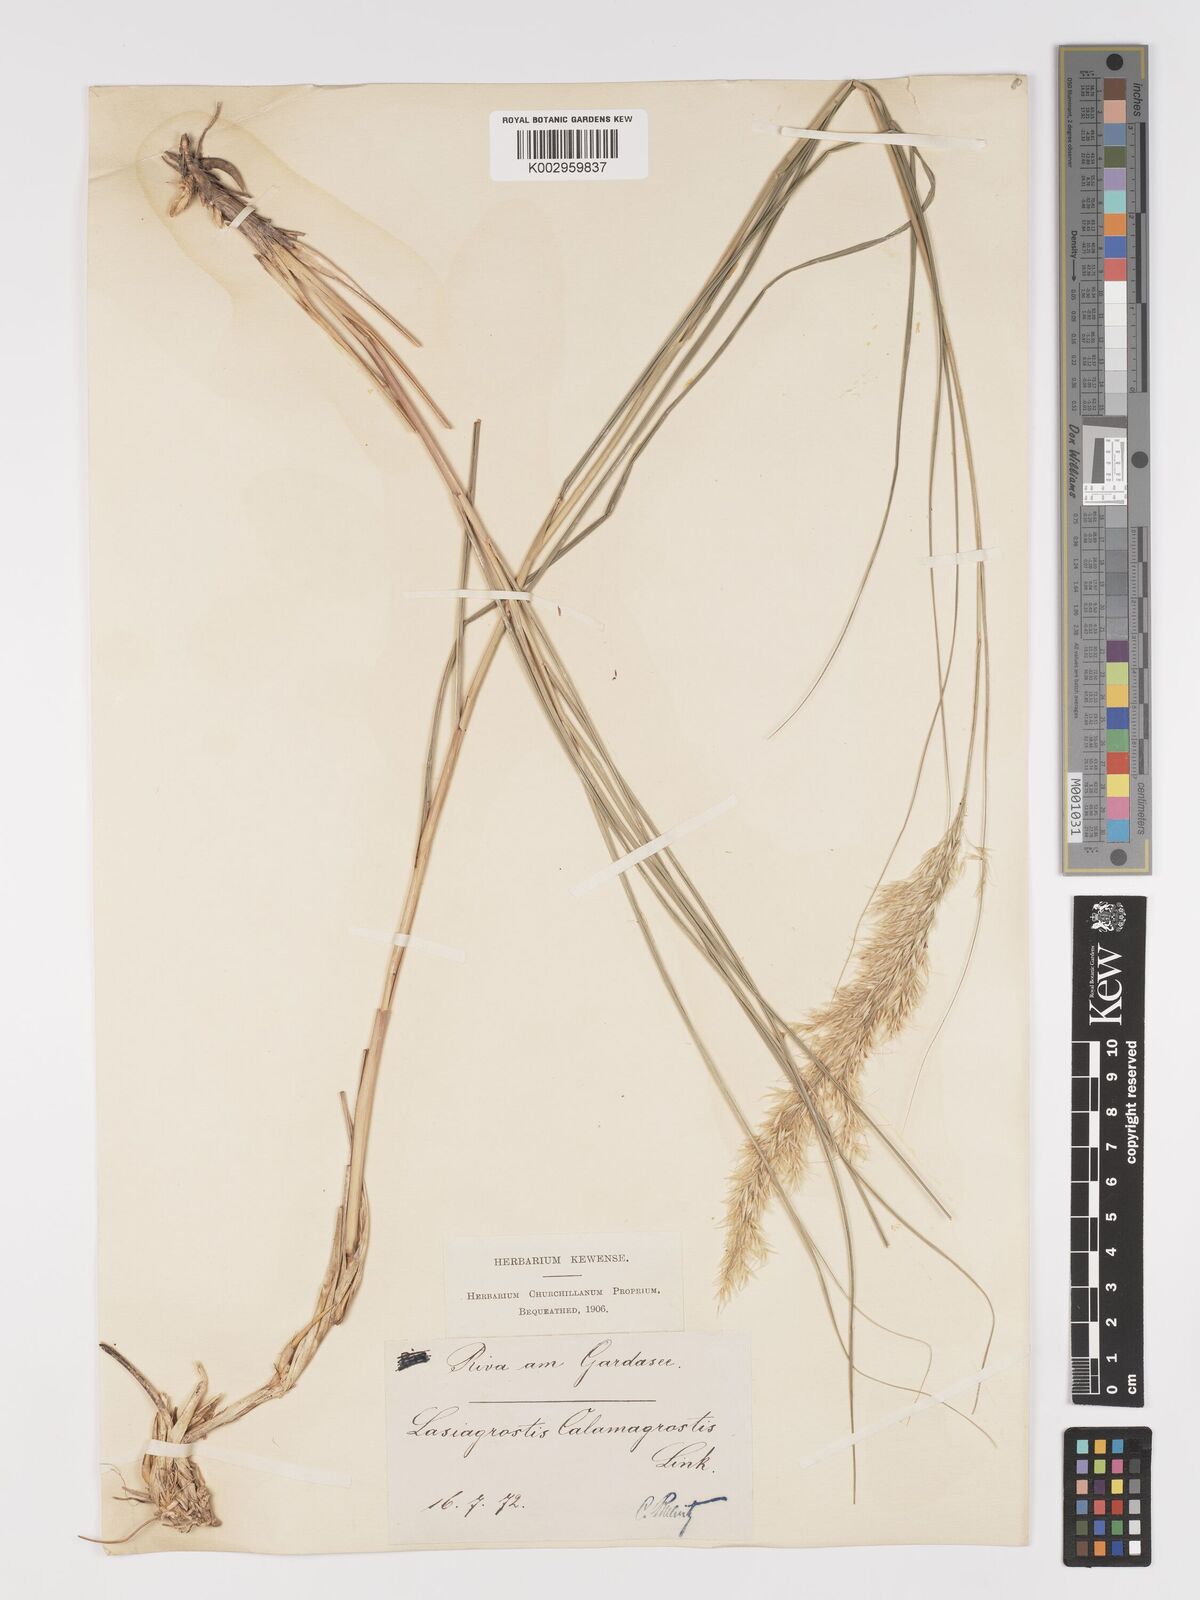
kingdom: Plantae
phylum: Tracheophyta
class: Liliopsida
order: Poales
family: Poaceae
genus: Achnatherum
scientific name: Achnatherum calamagrostis
